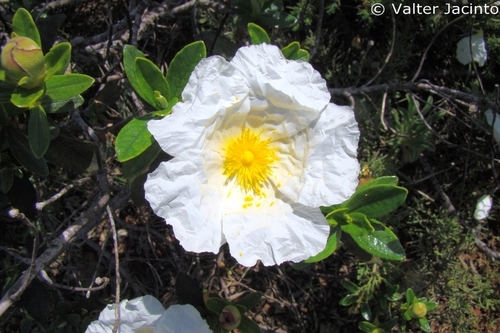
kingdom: Plantae
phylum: Tracheophyta
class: Magnoliopsida
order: Malvales
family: Cistaceae
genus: Cistus
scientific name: Cistus ladanifer
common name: Common gum cistus
